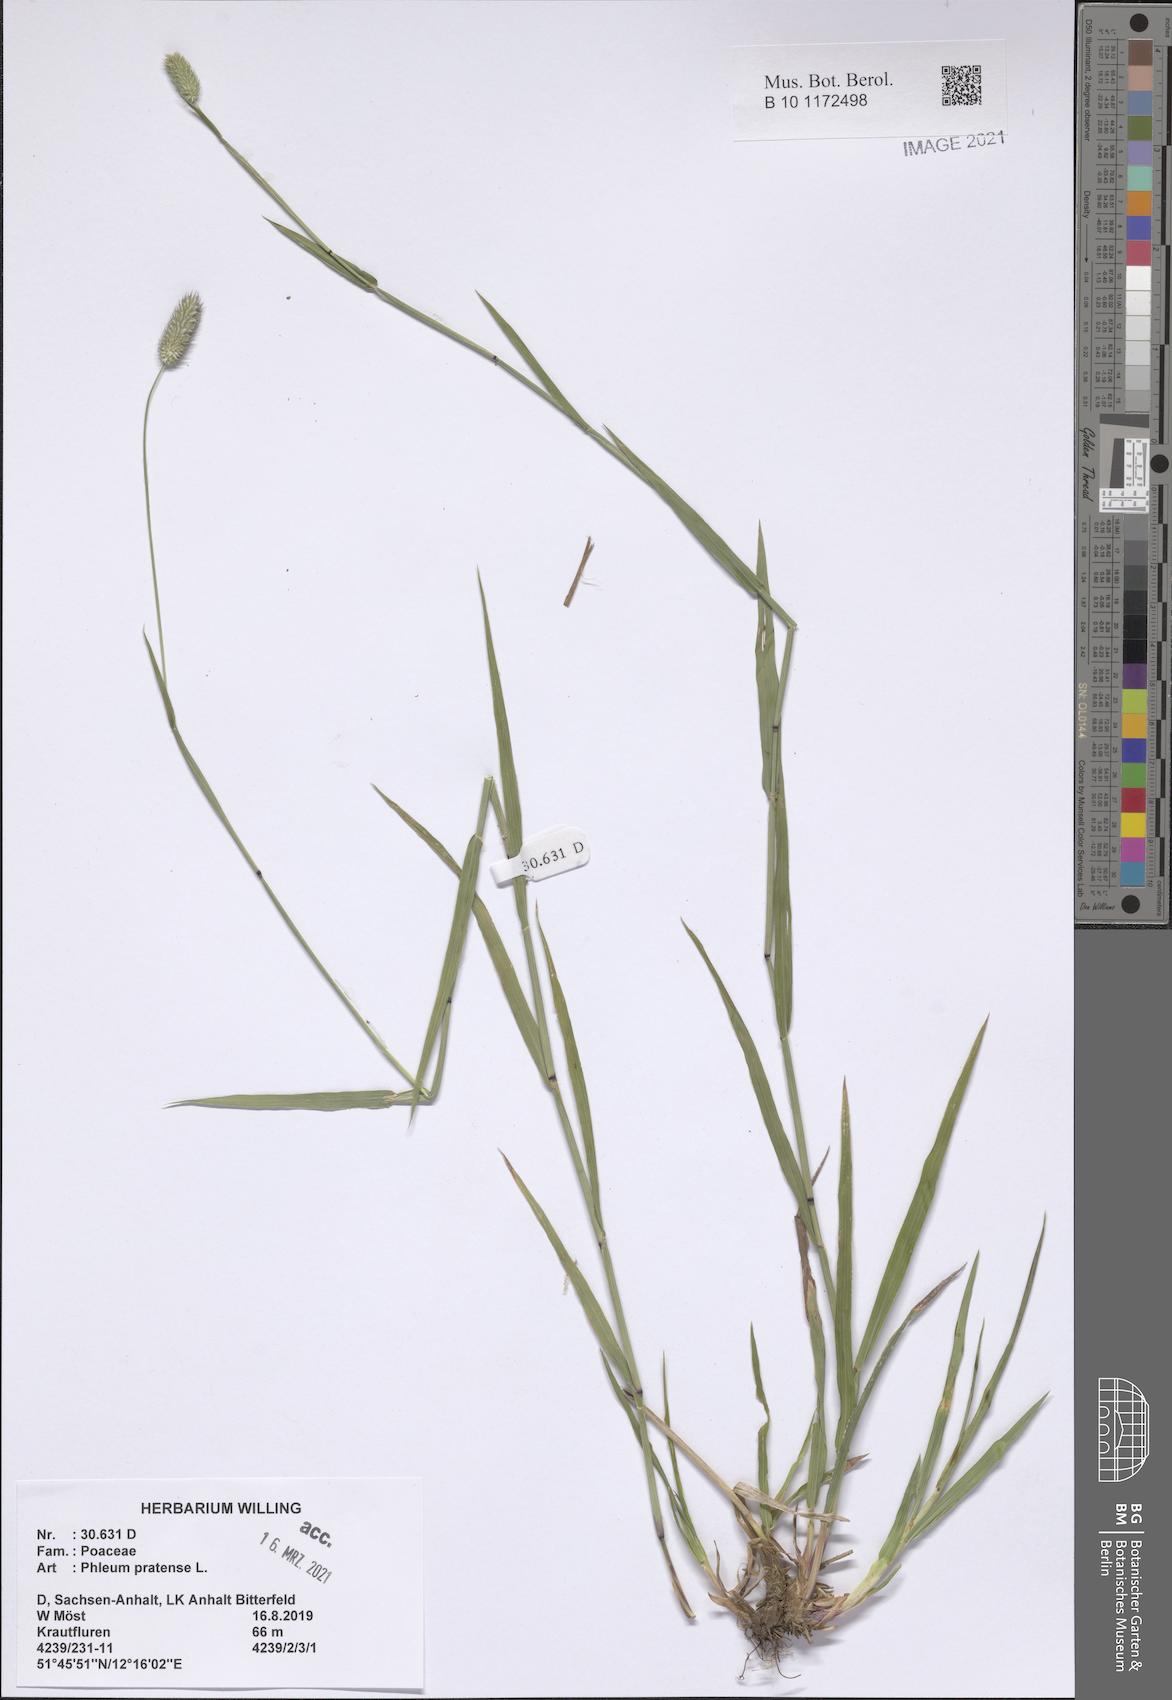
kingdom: Plantae
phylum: Tracheophyta
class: Liliopsida
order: Poales
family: Poaceae
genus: Phleum
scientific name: Phleum pratense
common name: Timothy grass
